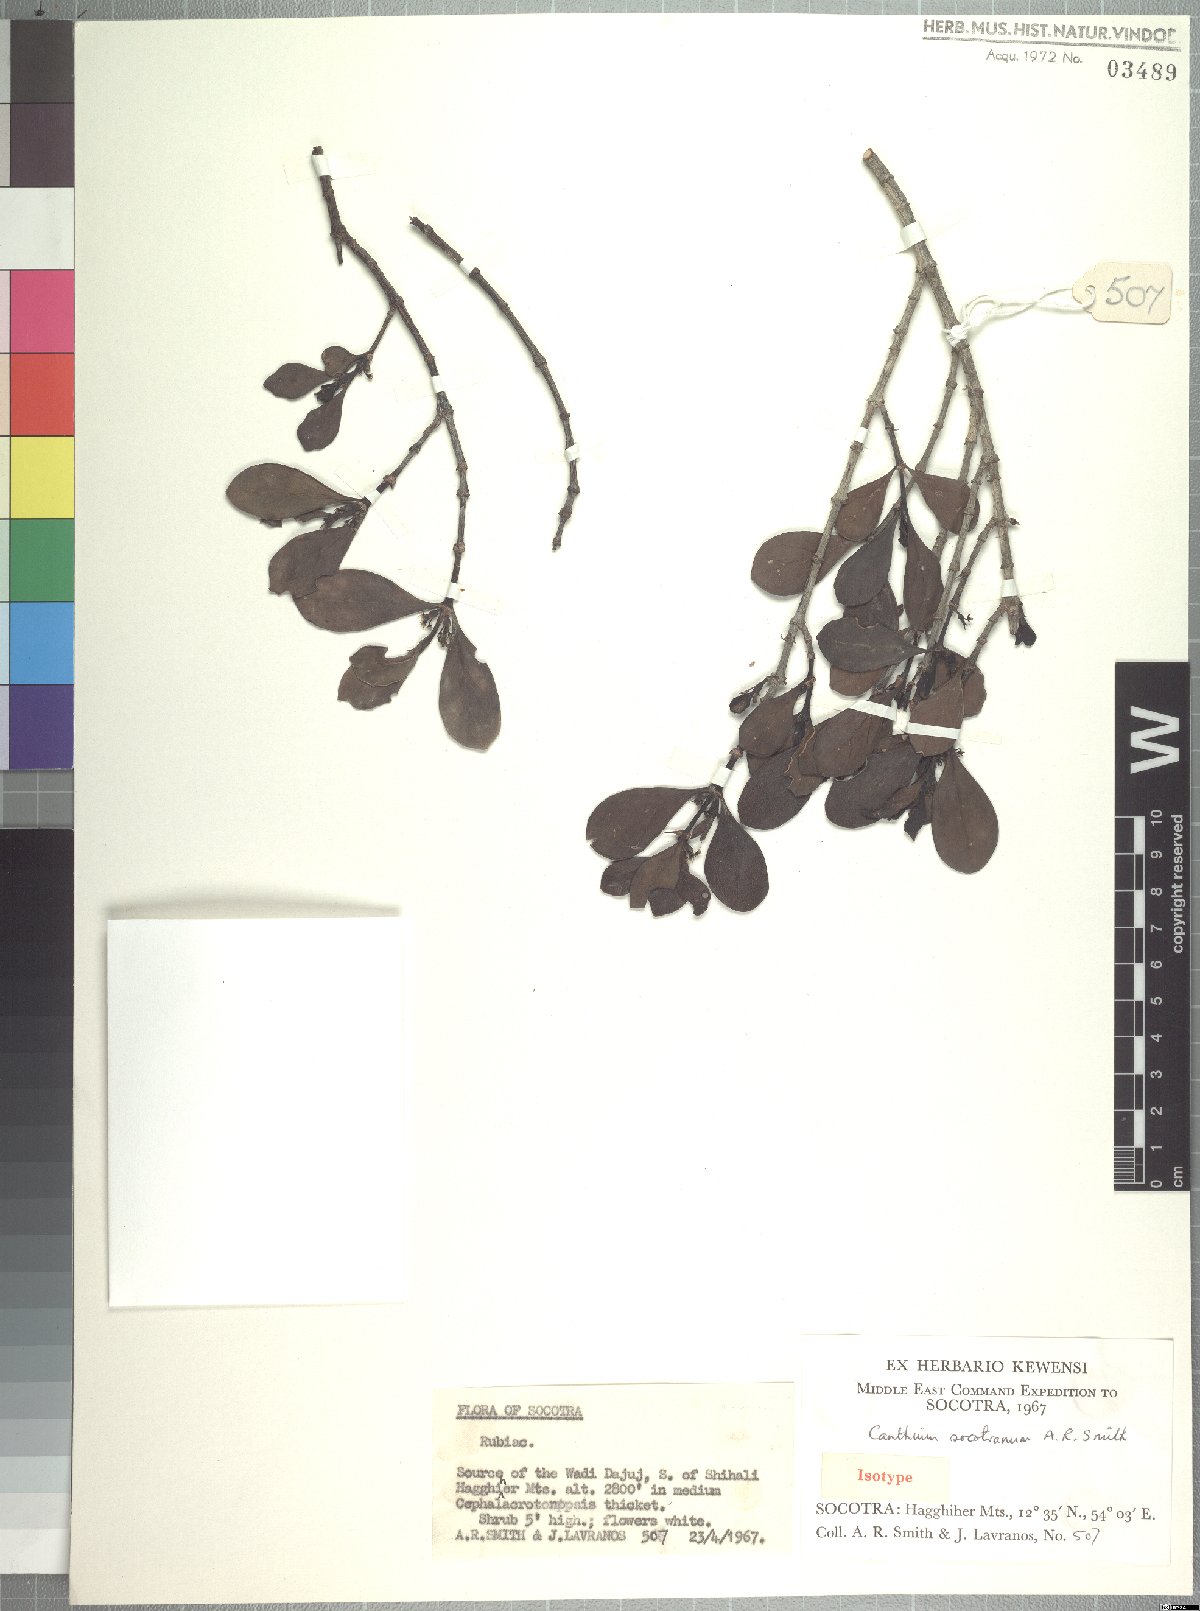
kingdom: Plantae
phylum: Tracheophyta
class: Magnoliopsida
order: Gentianales
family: Rubiaceae
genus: Pyrostria
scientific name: Pyrostria bibracteata
